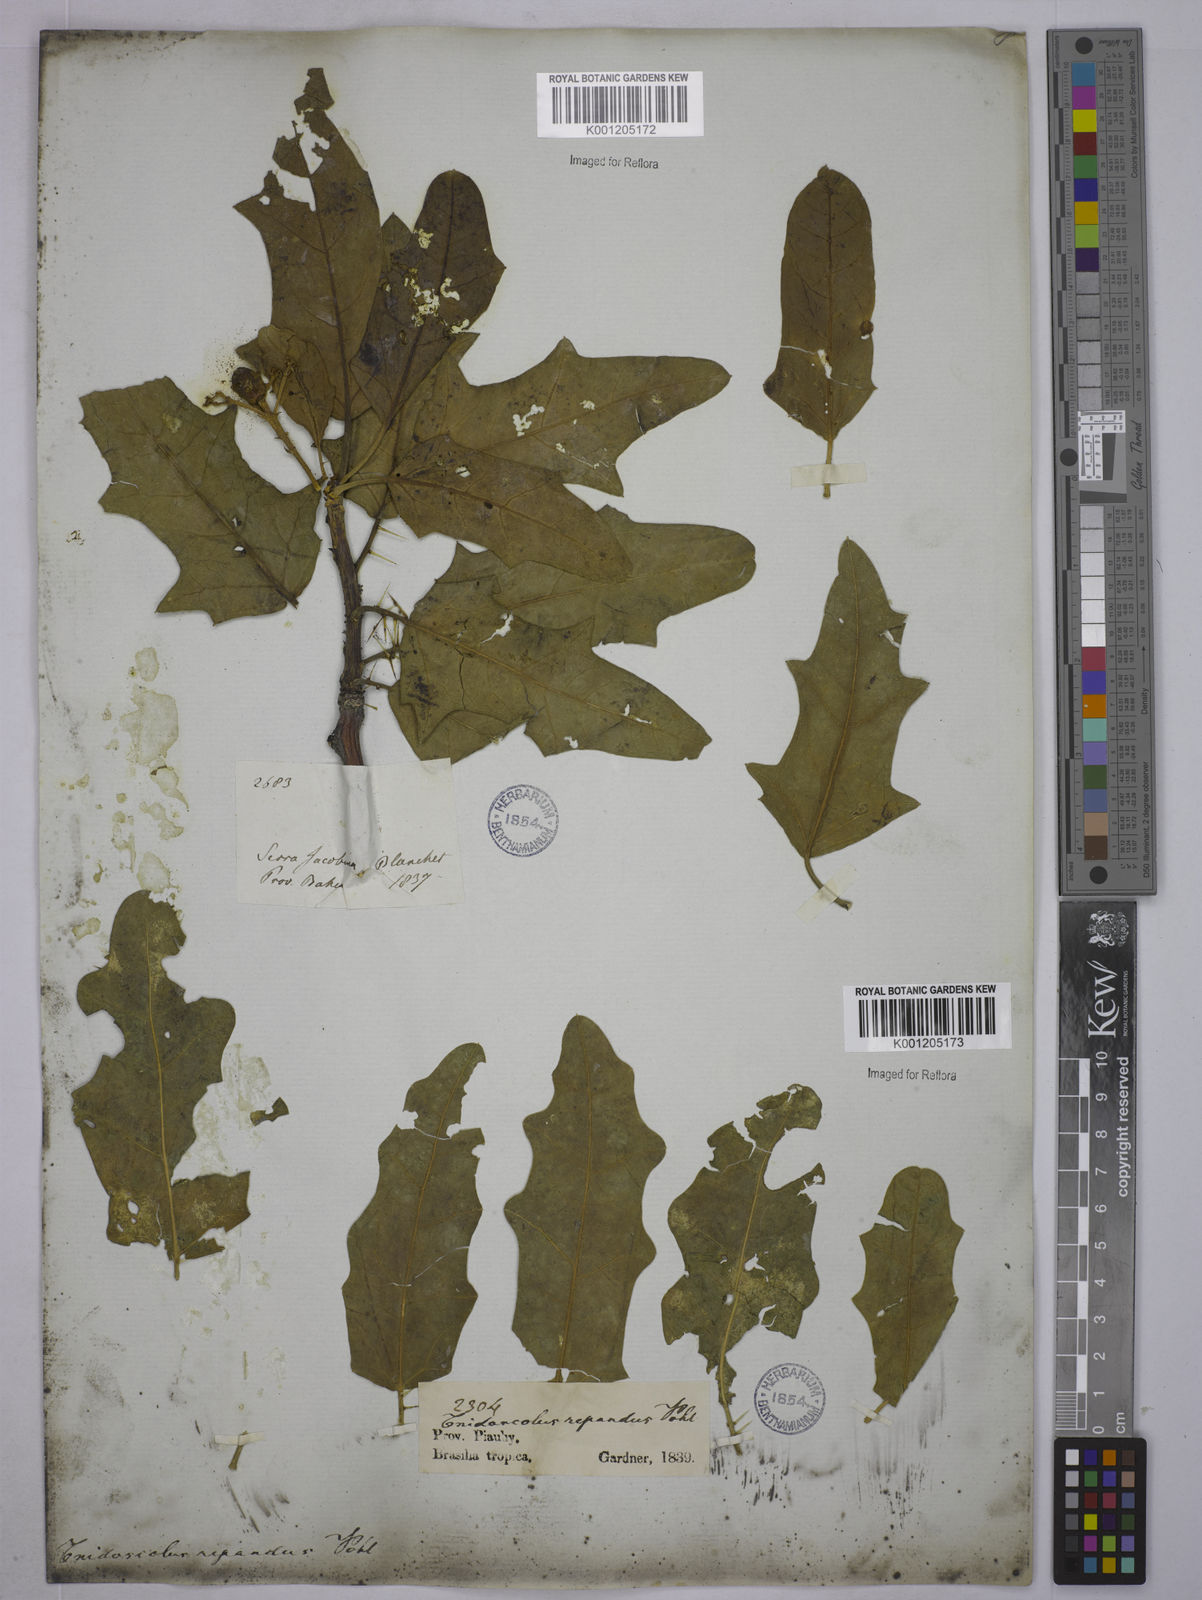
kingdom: Plantae
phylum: Tracheophyta
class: Magnoliopsida
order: Malpighiales
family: Euphorbiaceae
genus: Cnidoscolus
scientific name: Cnidoscolus
